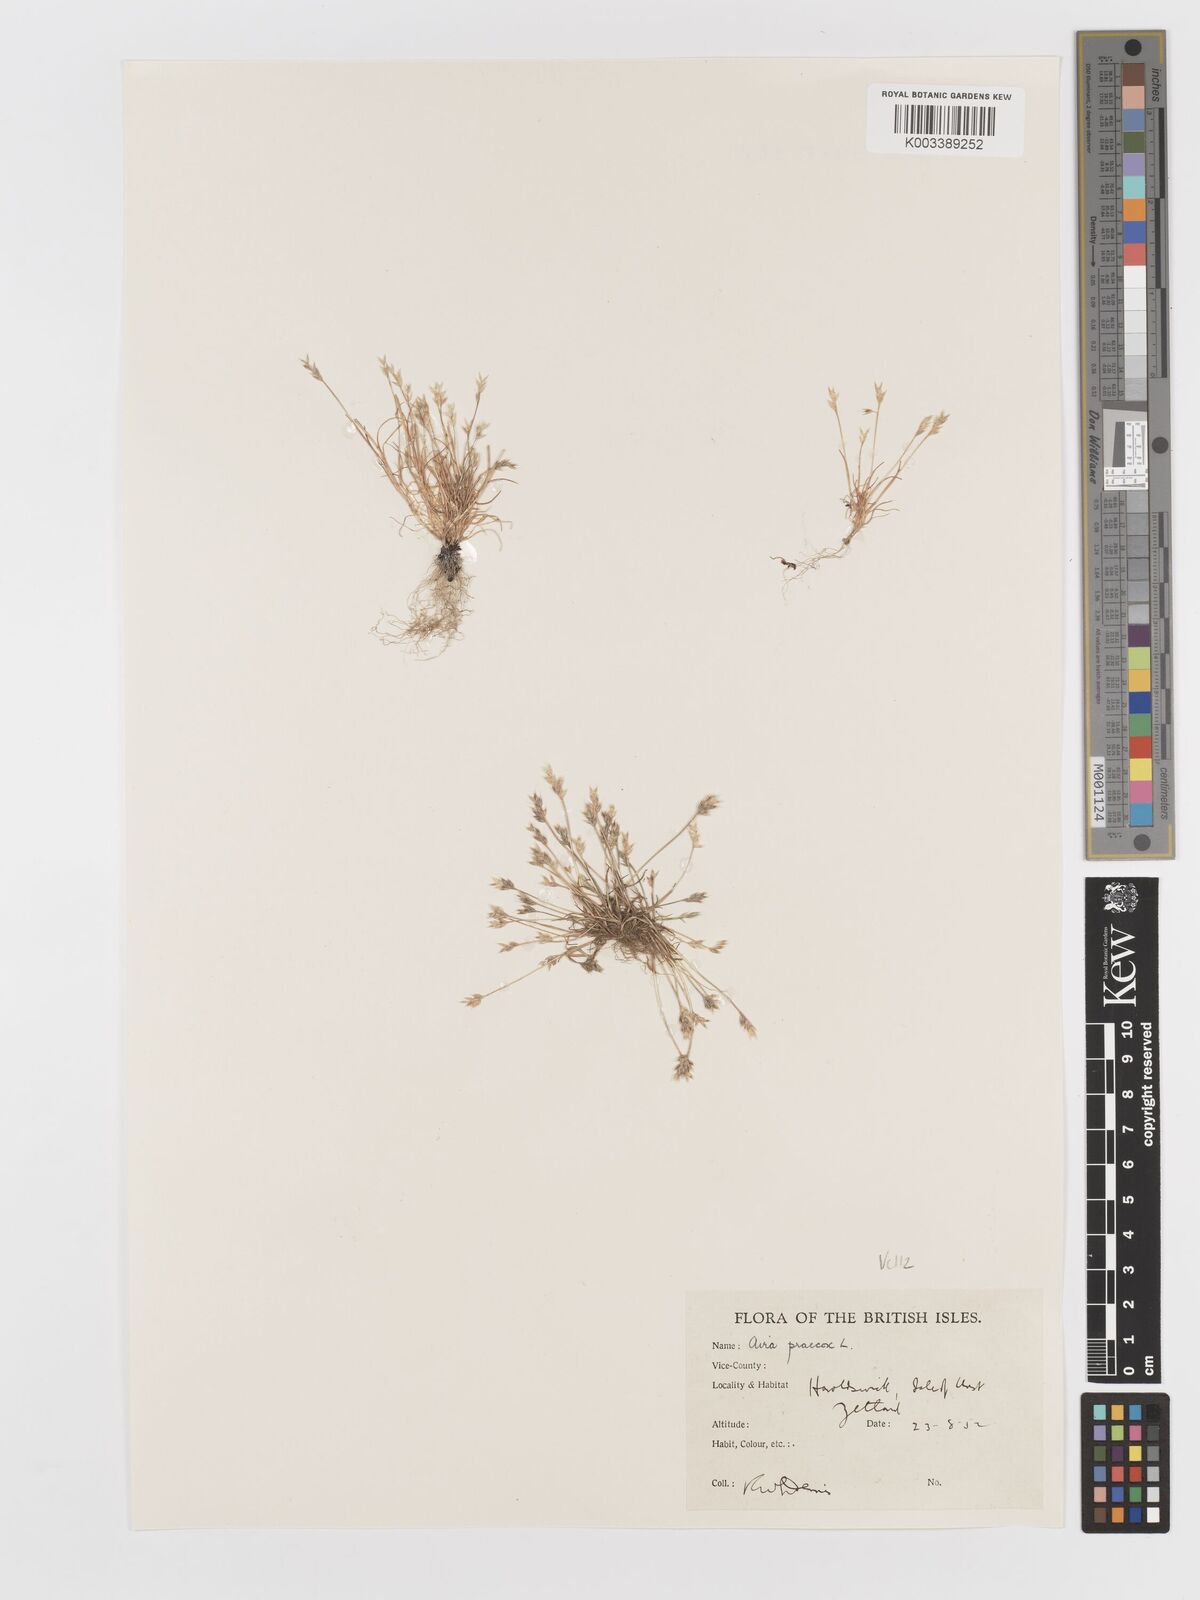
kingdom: Plantae
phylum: Tracheophyta
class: Liliopsida
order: Poales
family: Poaceae
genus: Aira
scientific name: Aira praecox
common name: Early hair-grass
